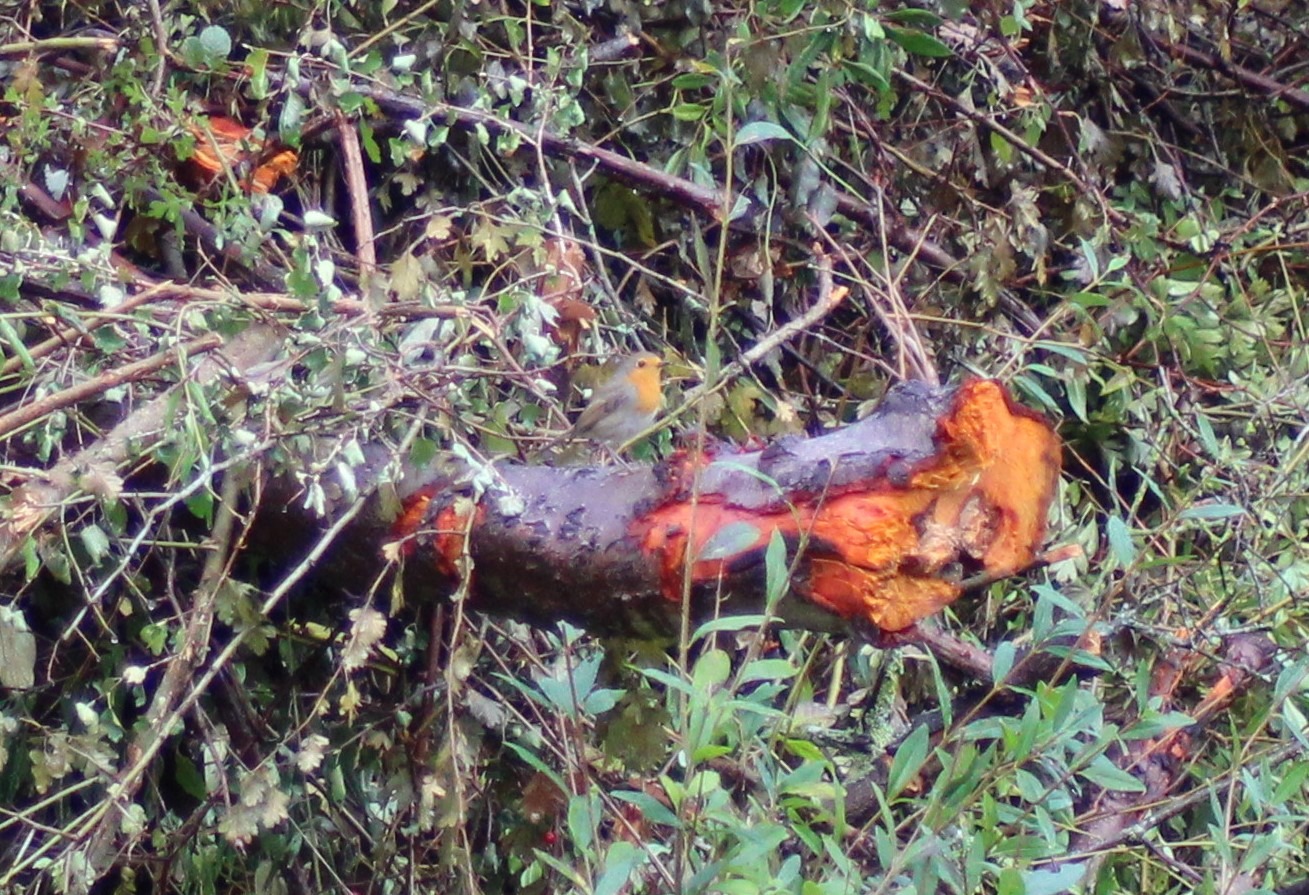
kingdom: Animalia
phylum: Chordata
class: Aves
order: Passeriformes
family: Muscicapidae
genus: Erithacus
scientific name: Erithacus rubecula
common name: Rødhals/rødkælk
